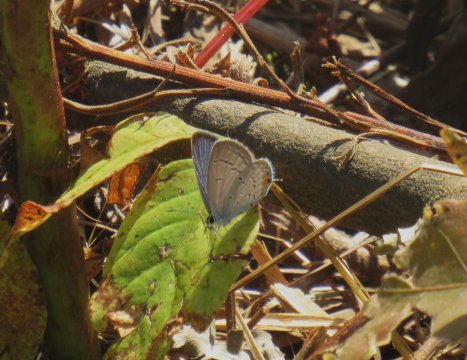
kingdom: Animalia
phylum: Arthropoda
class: Insecta
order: Lepidoptera
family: Lycaenidae
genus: Elkalyce
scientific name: Elkalyce comyntas
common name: Eastern Tailed-Blue
